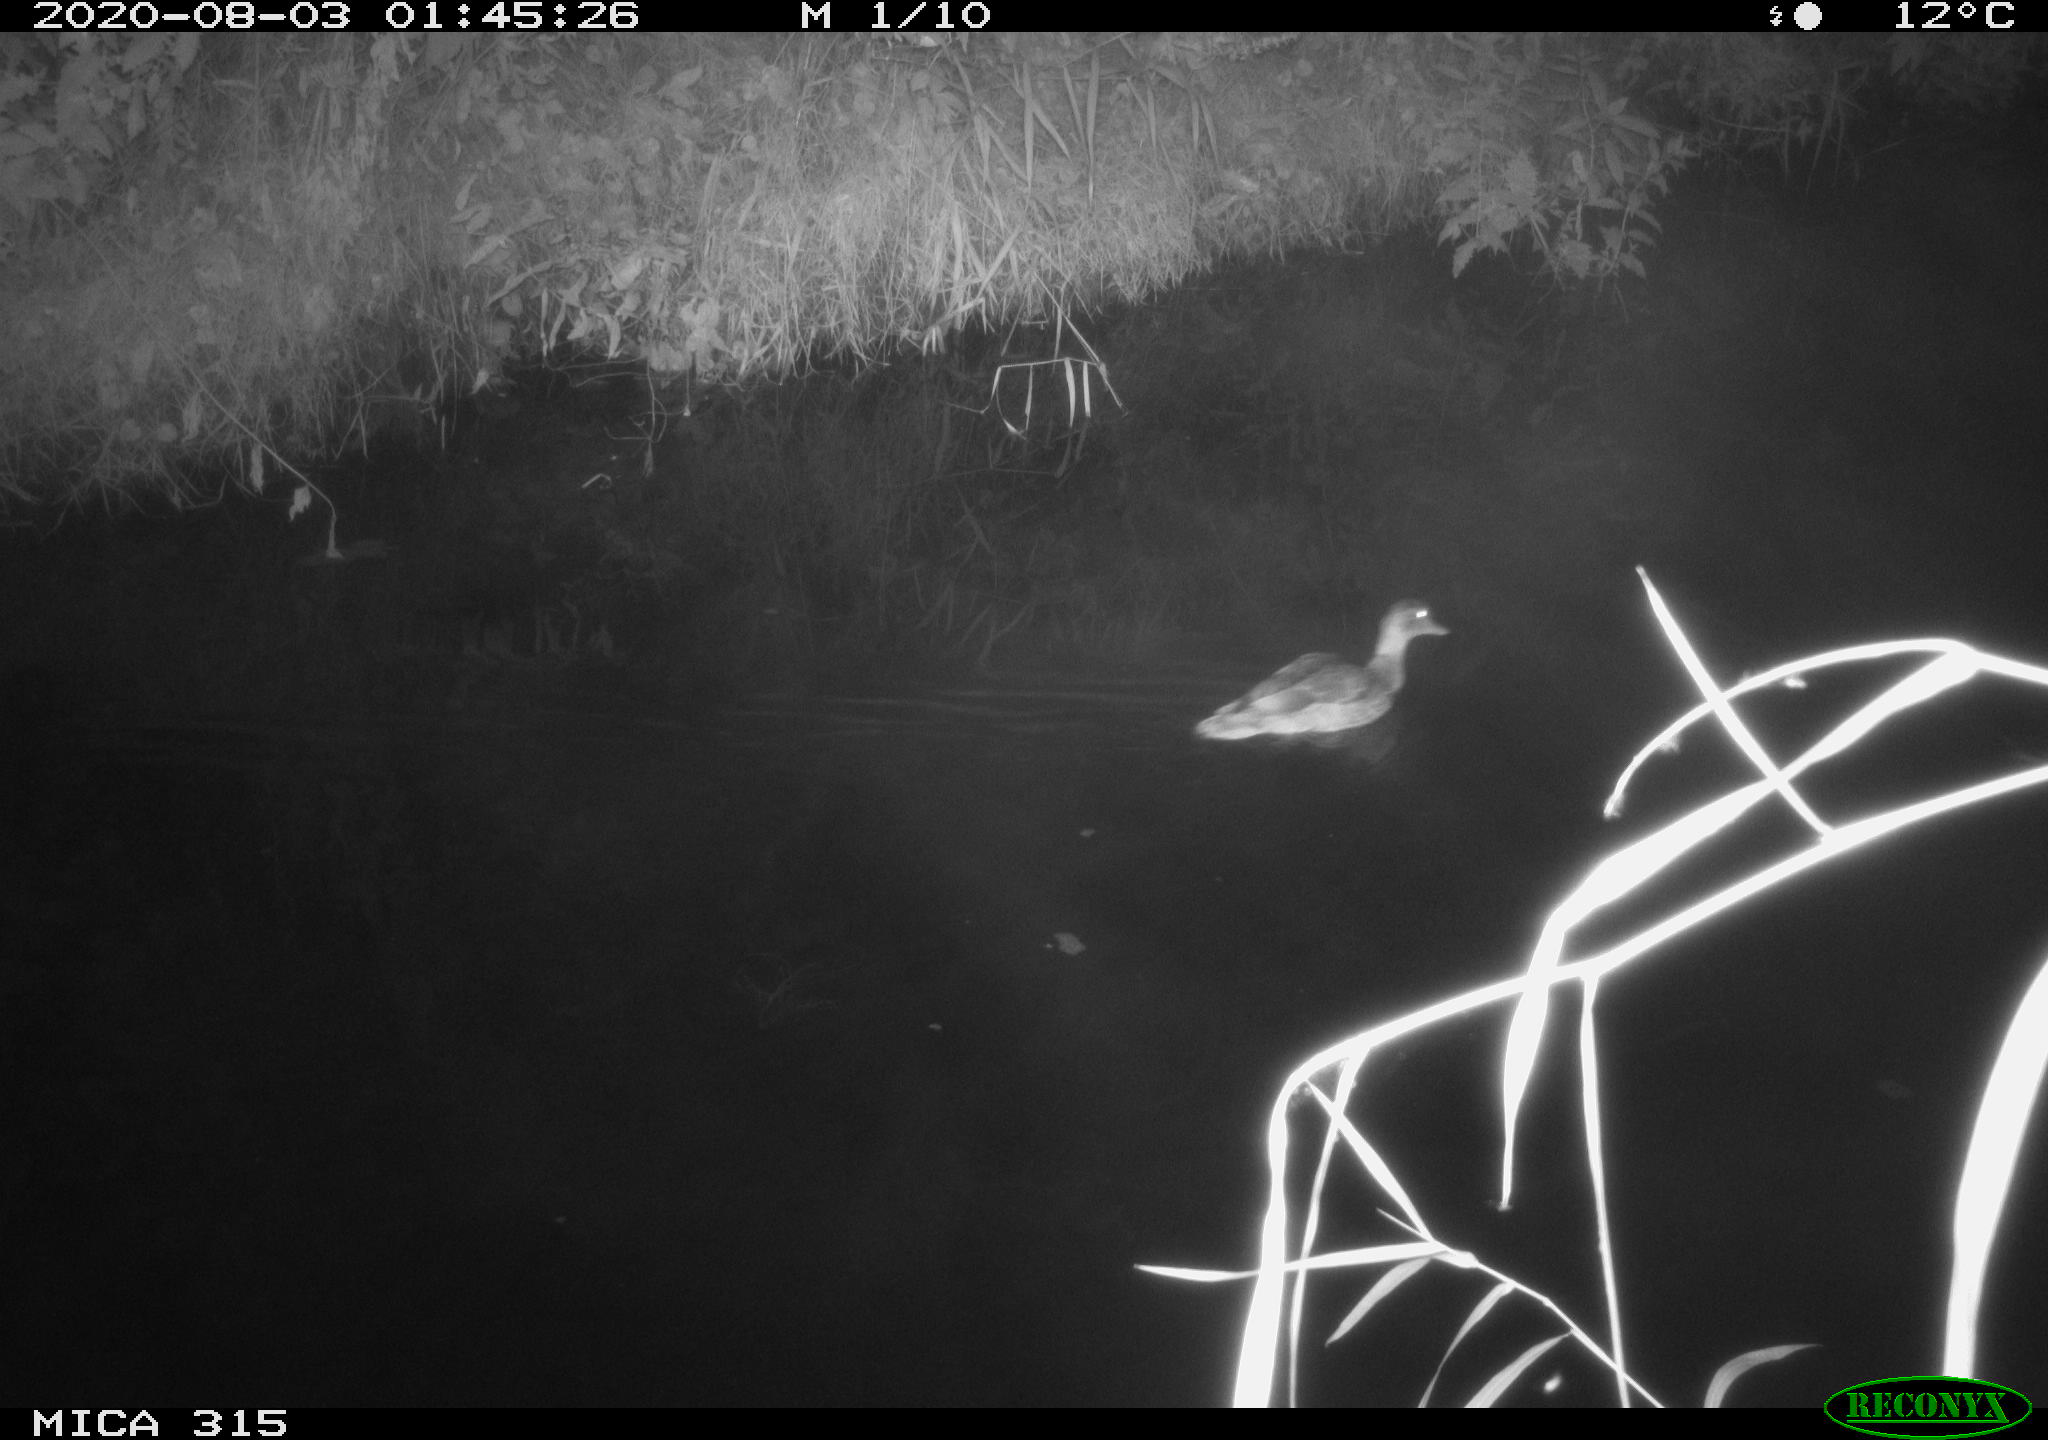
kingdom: Animalia
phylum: Chordata
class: Aves
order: Anseriformes
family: Anatidae
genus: Anas
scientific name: Anas platyrhynchos
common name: Mallard
